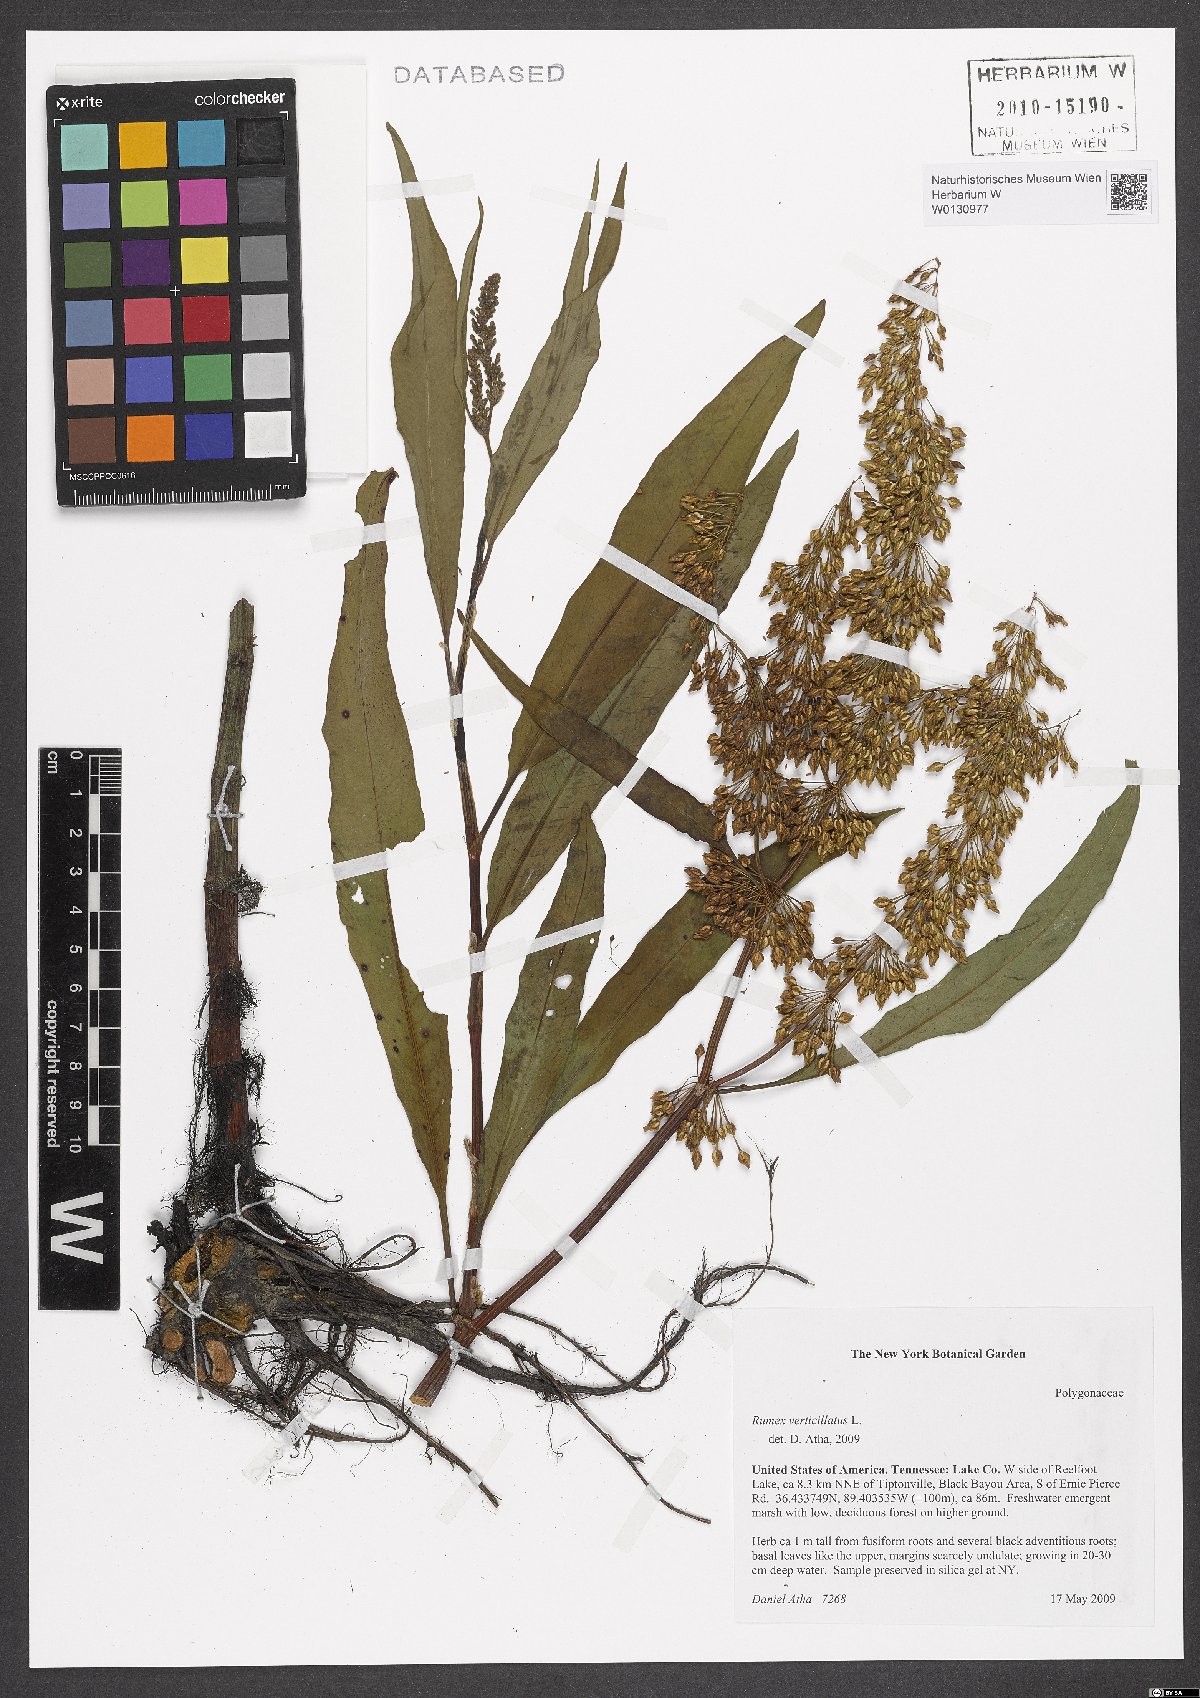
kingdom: Plantae
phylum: Tracheophyta
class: Magnoliopsida
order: Caryophyllales
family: Polygonaceae
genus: Rumex
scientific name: Rumex verticillatus
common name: Swamp dock
